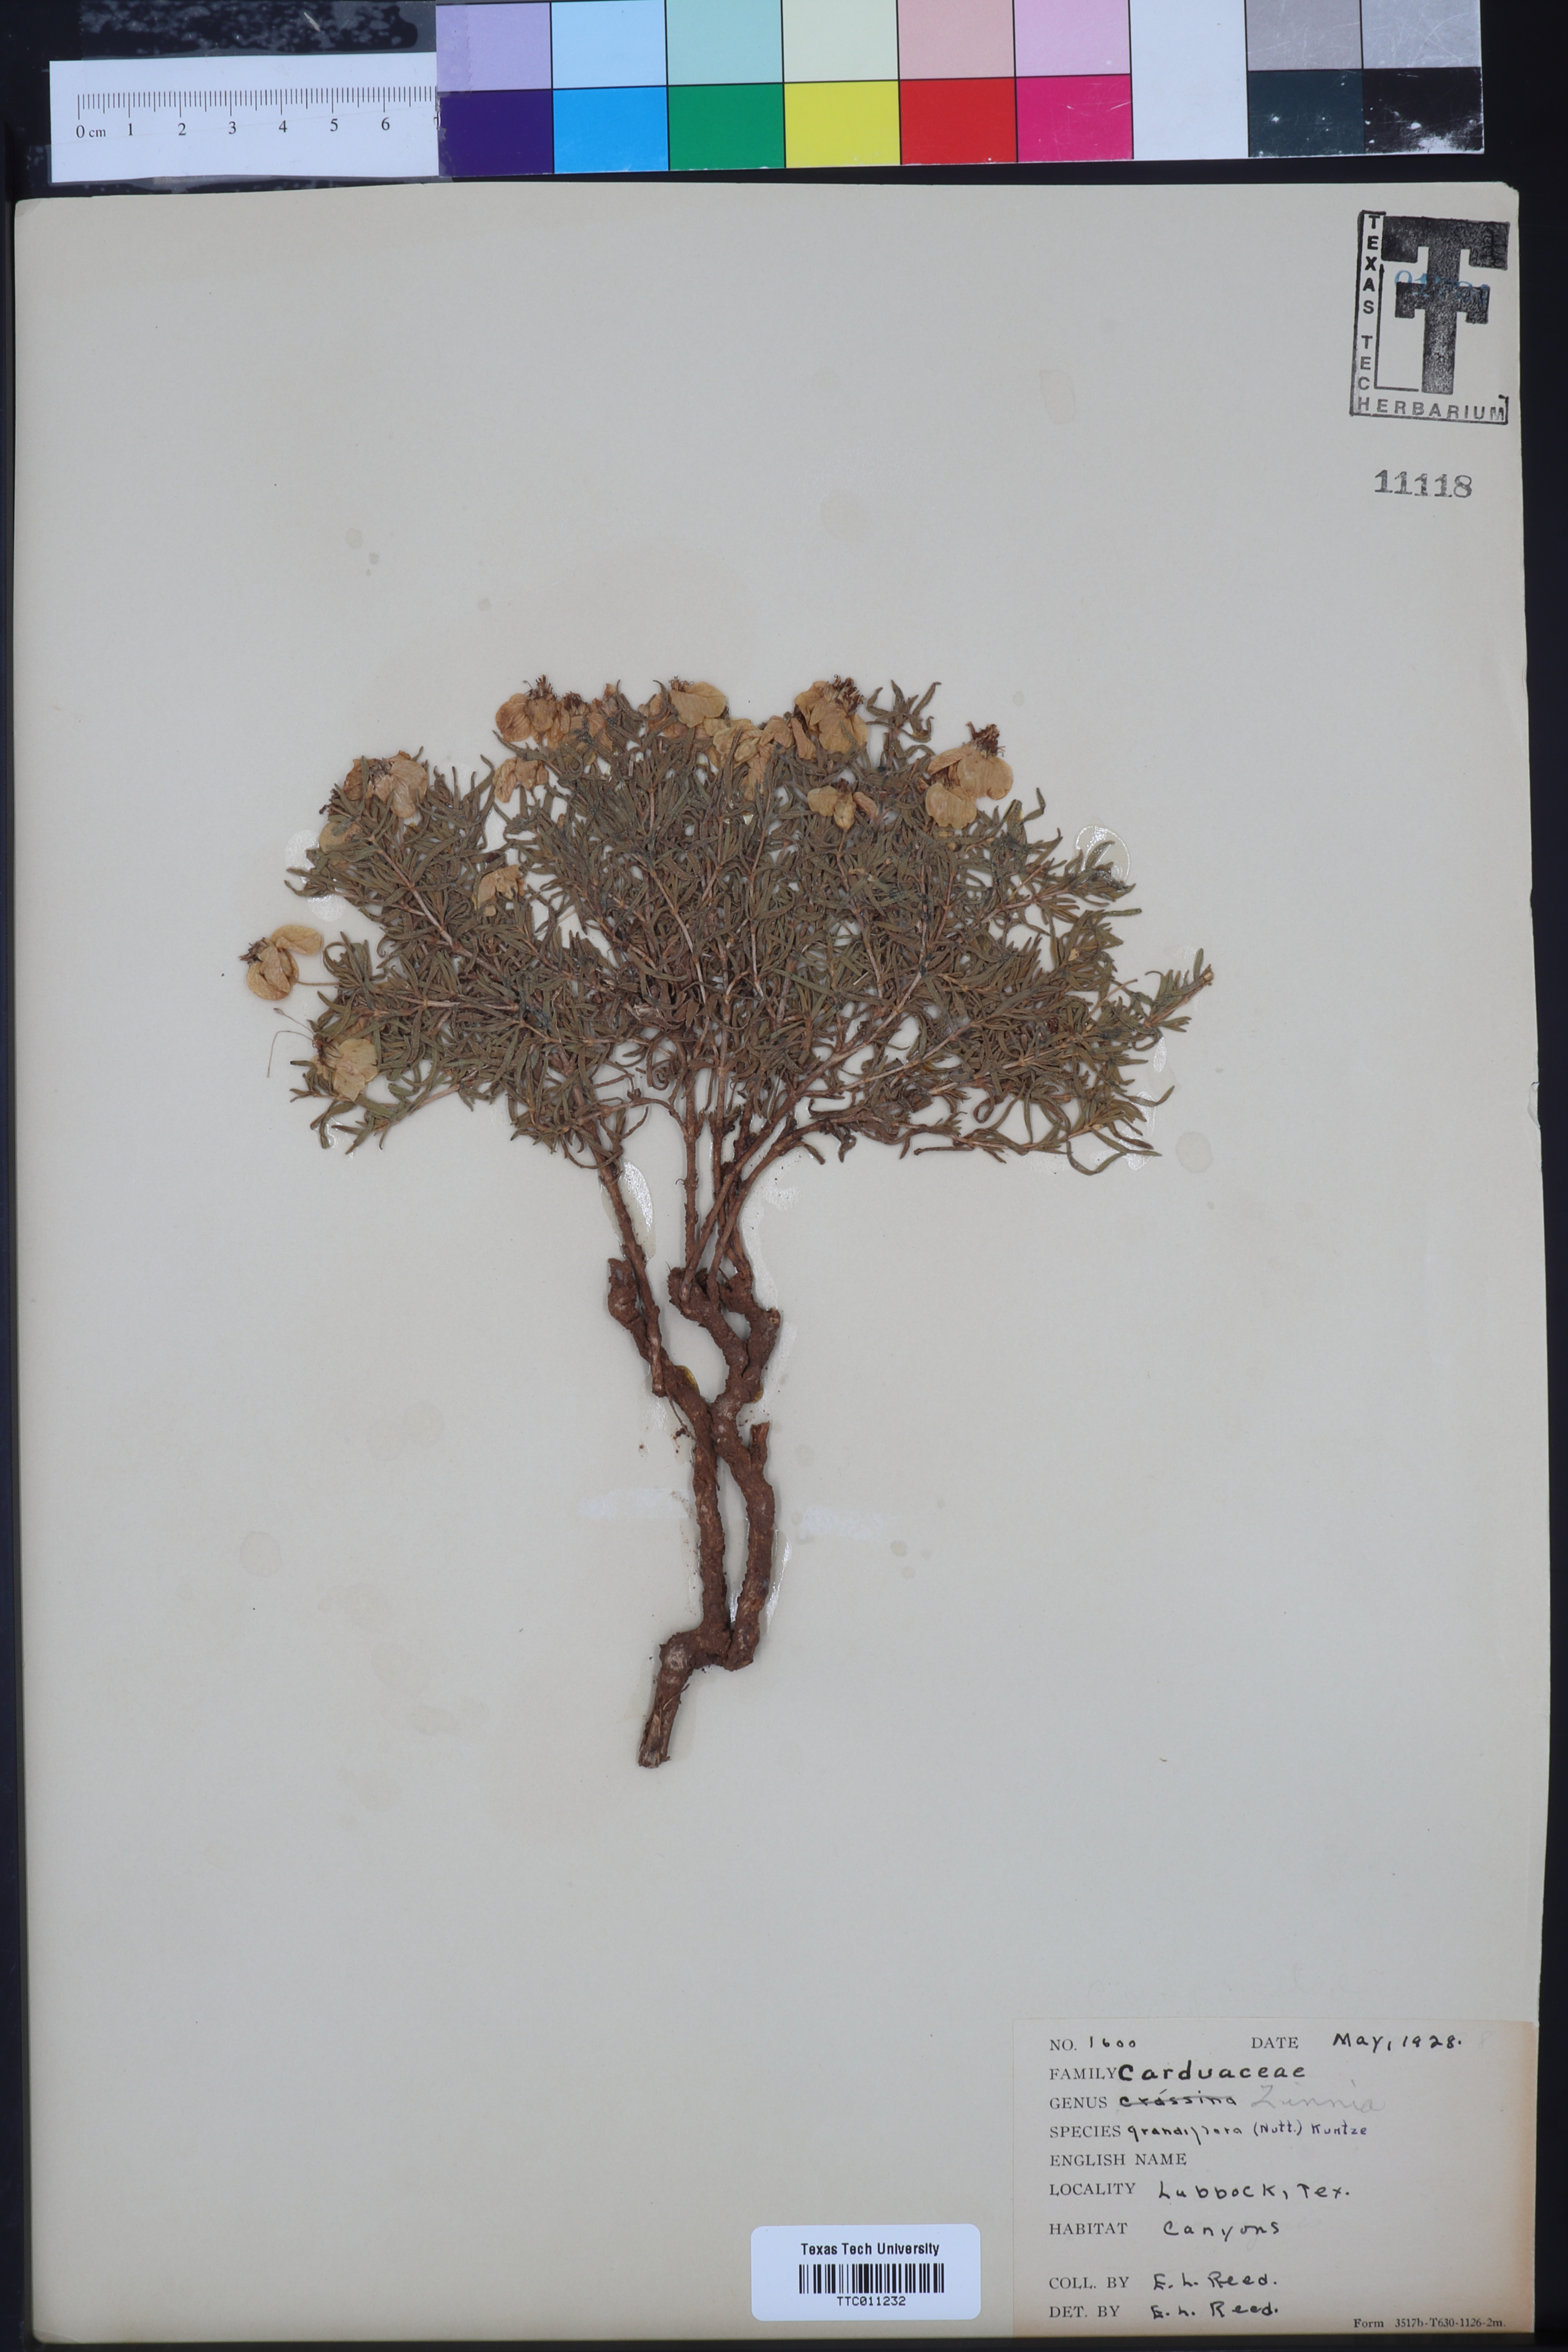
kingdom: Plantae
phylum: Tracheophyta
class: Magnoliopsida
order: Asterales
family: Asteraceae
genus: Zinnia
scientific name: Zinnia grandiflora
